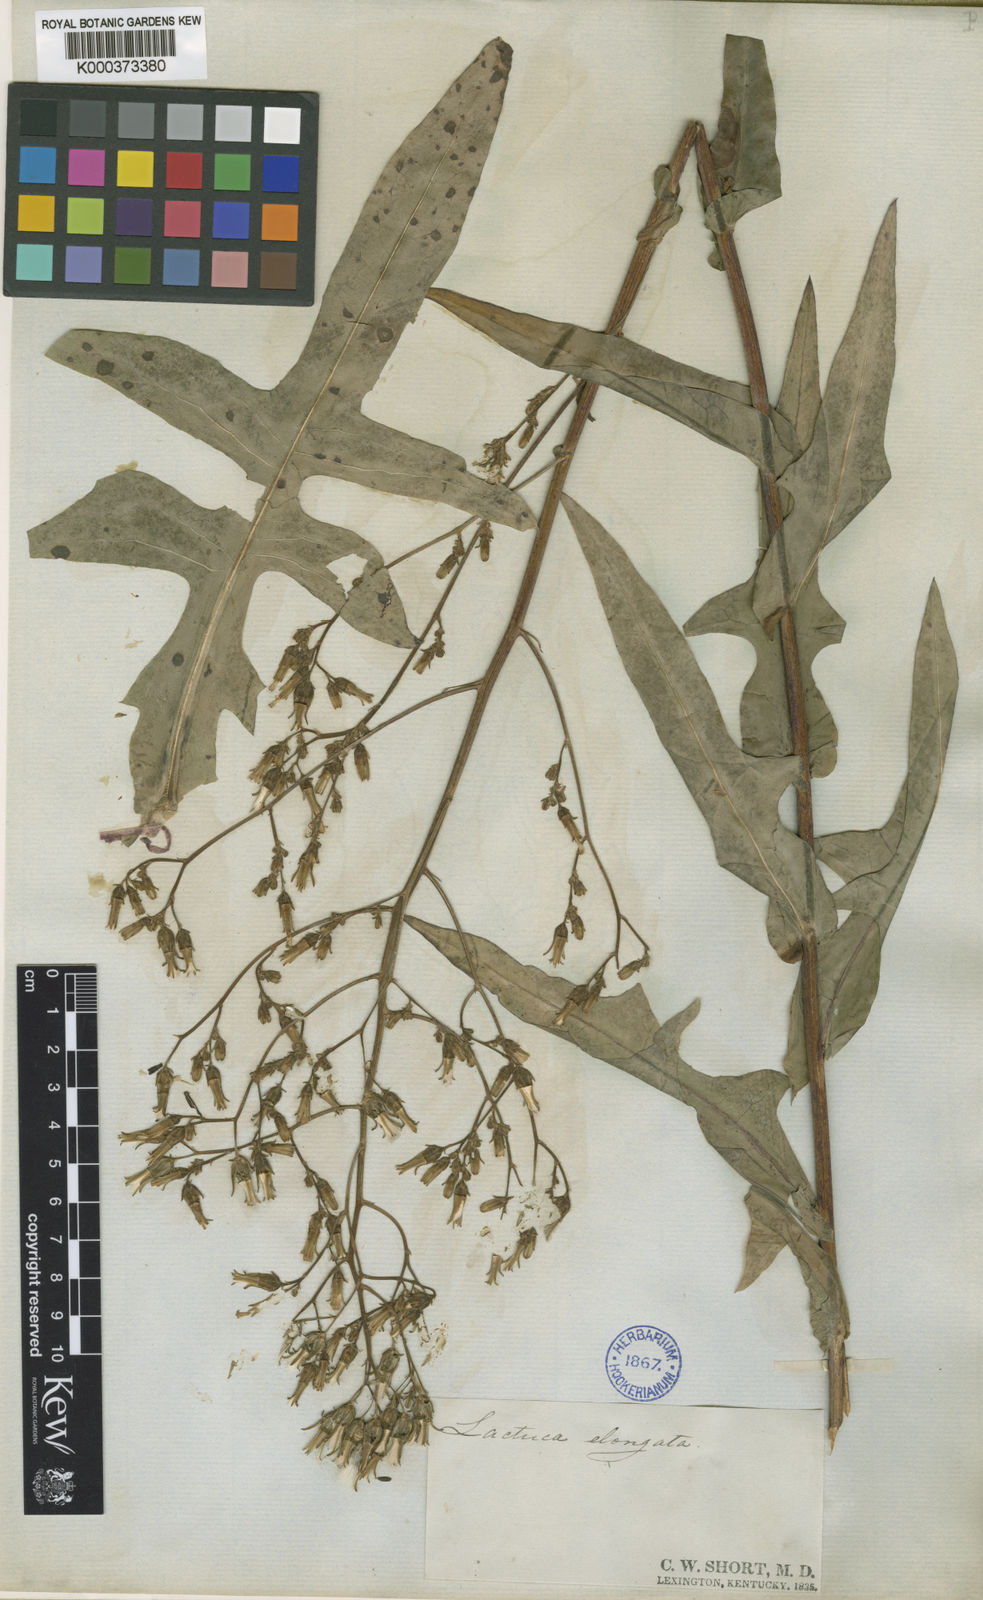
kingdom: Plantae
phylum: Tracheophyta
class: Magnoliopsida
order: Asterales
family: Asteraceae
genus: Lactuca
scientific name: Lactuca hirsuta
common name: Hairy lettuce
